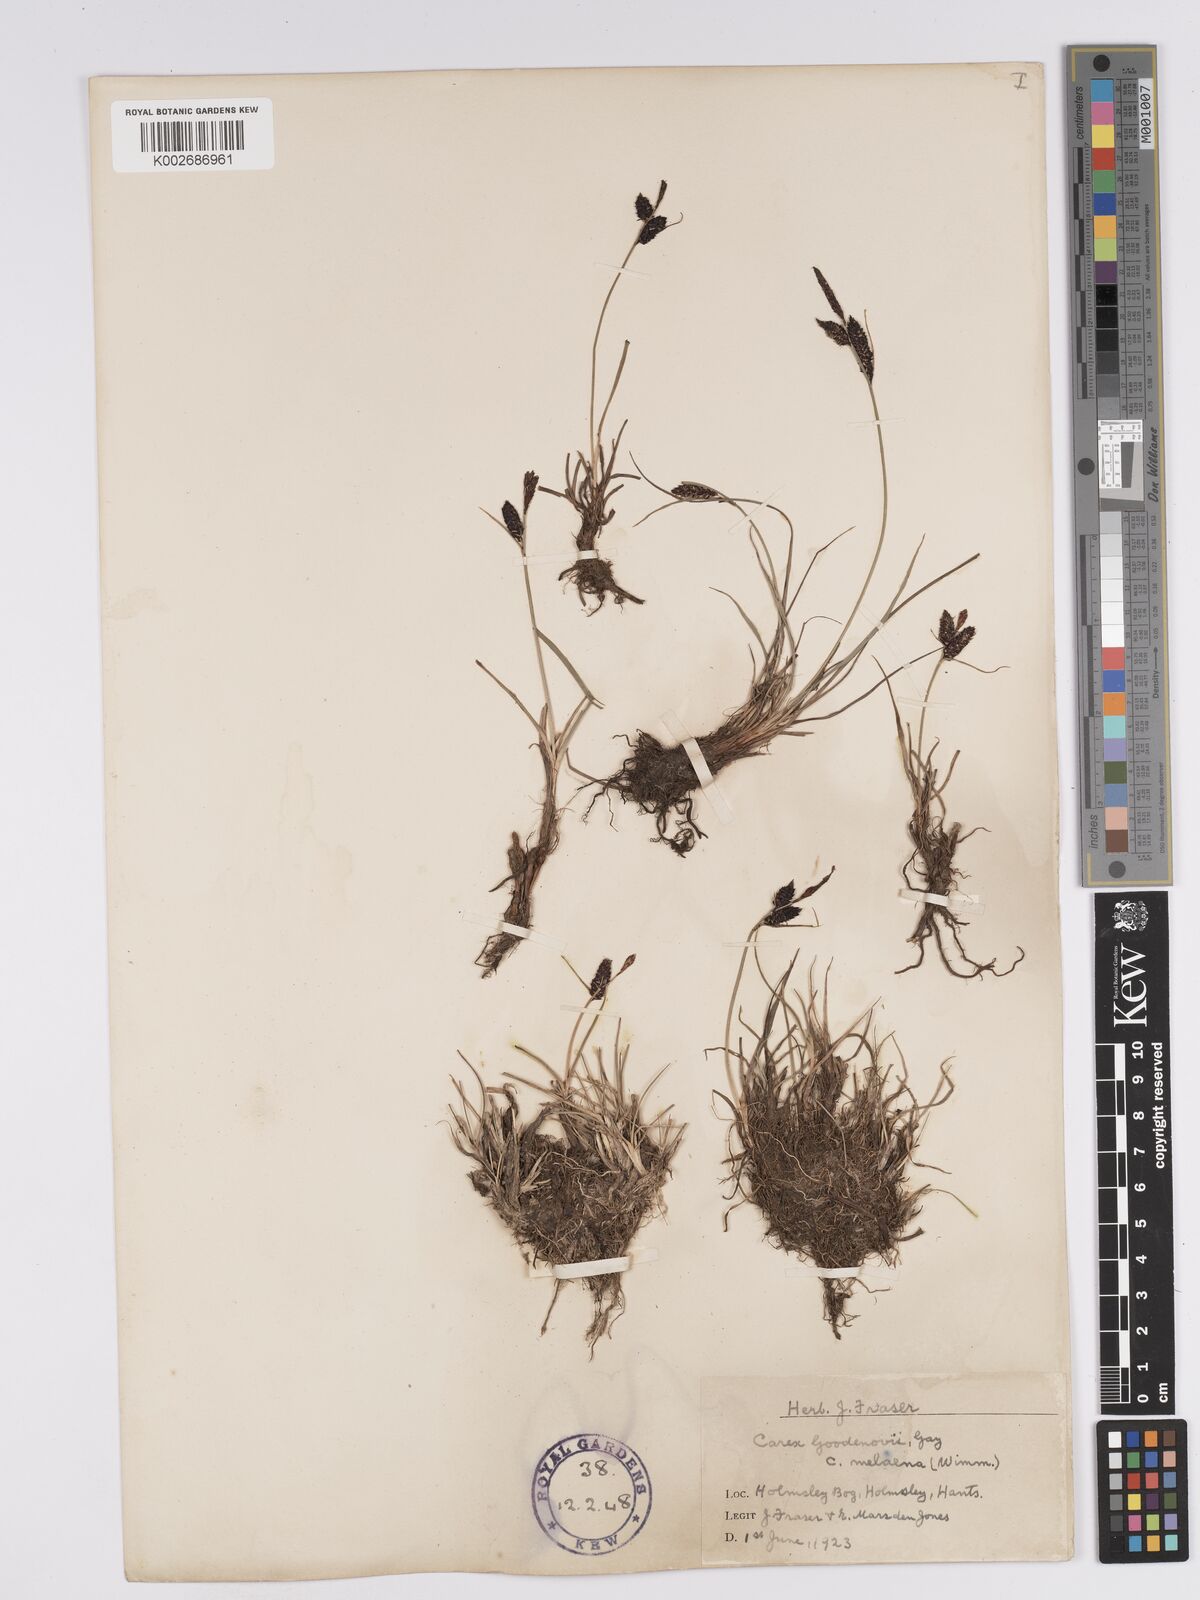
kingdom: Plantae
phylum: Tracheophyta
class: Liliopsida
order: Poales
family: Cyperaceae
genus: Carex
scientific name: Carex nigra
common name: Common sedge
